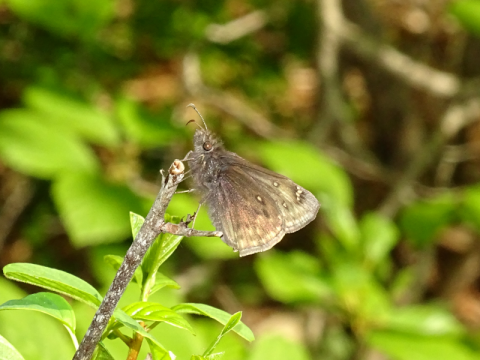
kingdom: Animalia
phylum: Arthropoda
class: Insecta
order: Lepidoptera
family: Hesperiidae
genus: Gesta
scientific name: Gesta
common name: Juvenal's Duskywing
